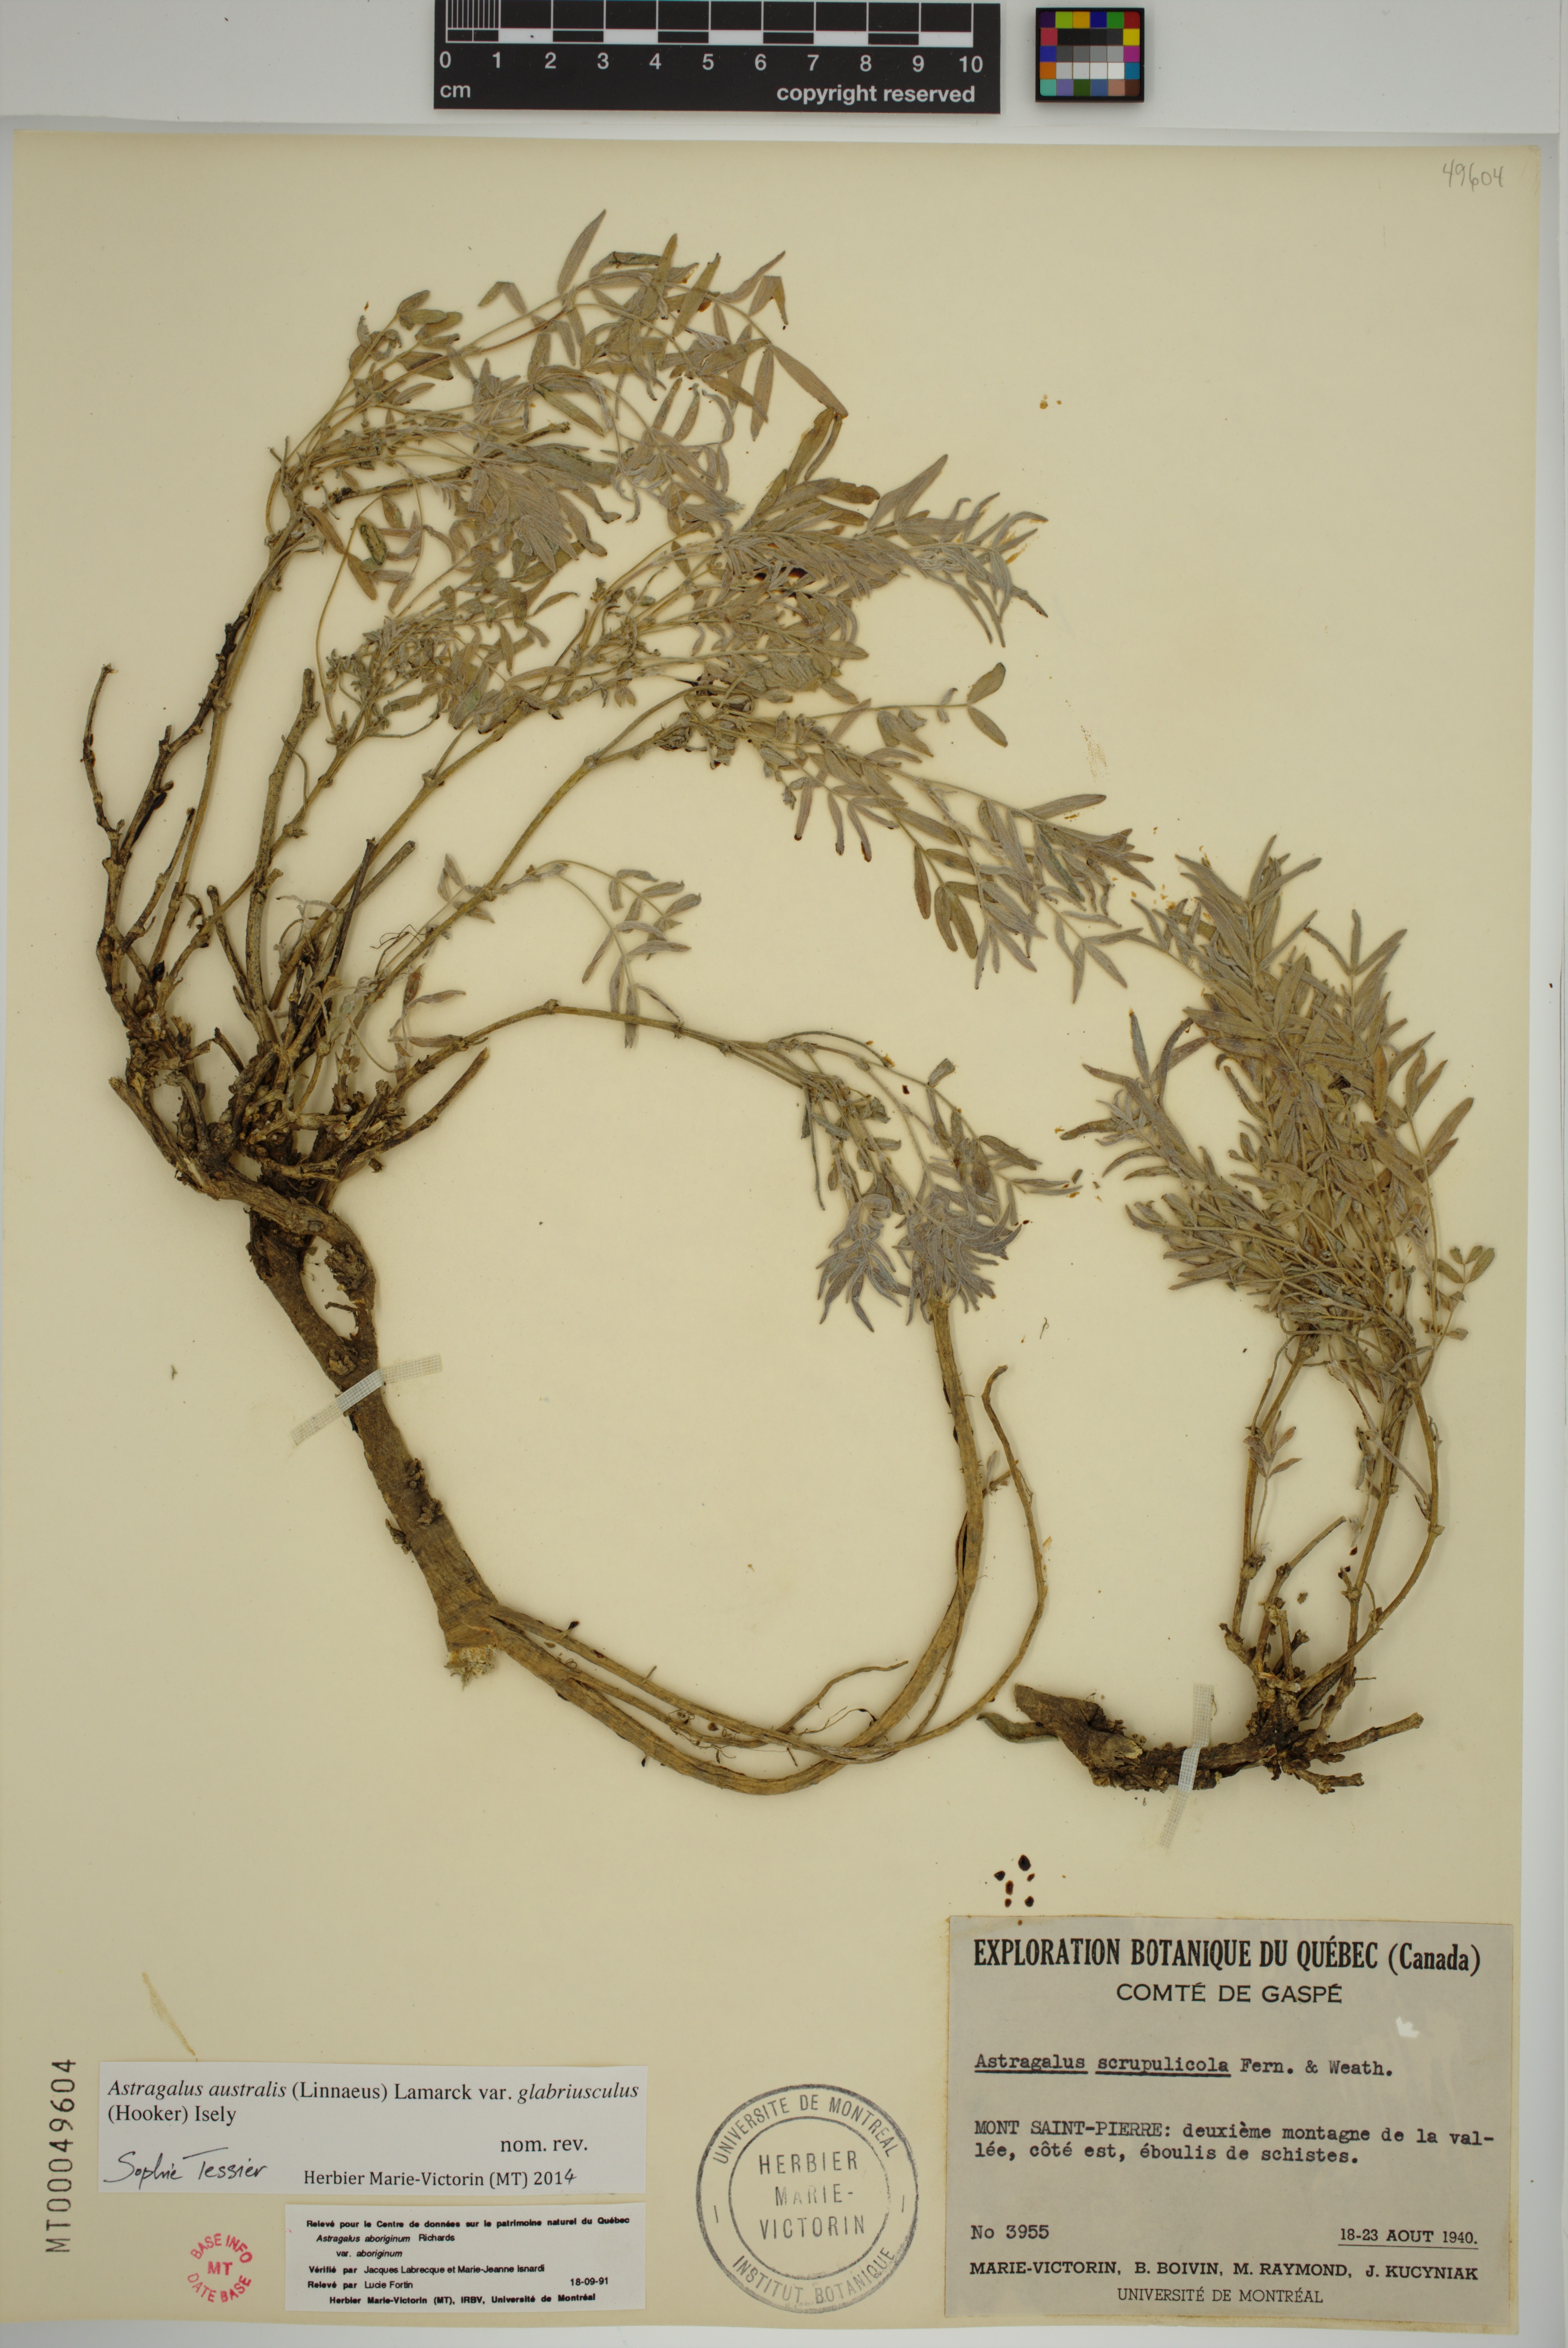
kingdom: Plantae
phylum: Tracheophyta
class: Magnoliopsida
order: Fabales
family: Fabaceae
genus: Astragalus
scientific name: Astragalus aboriginorum
